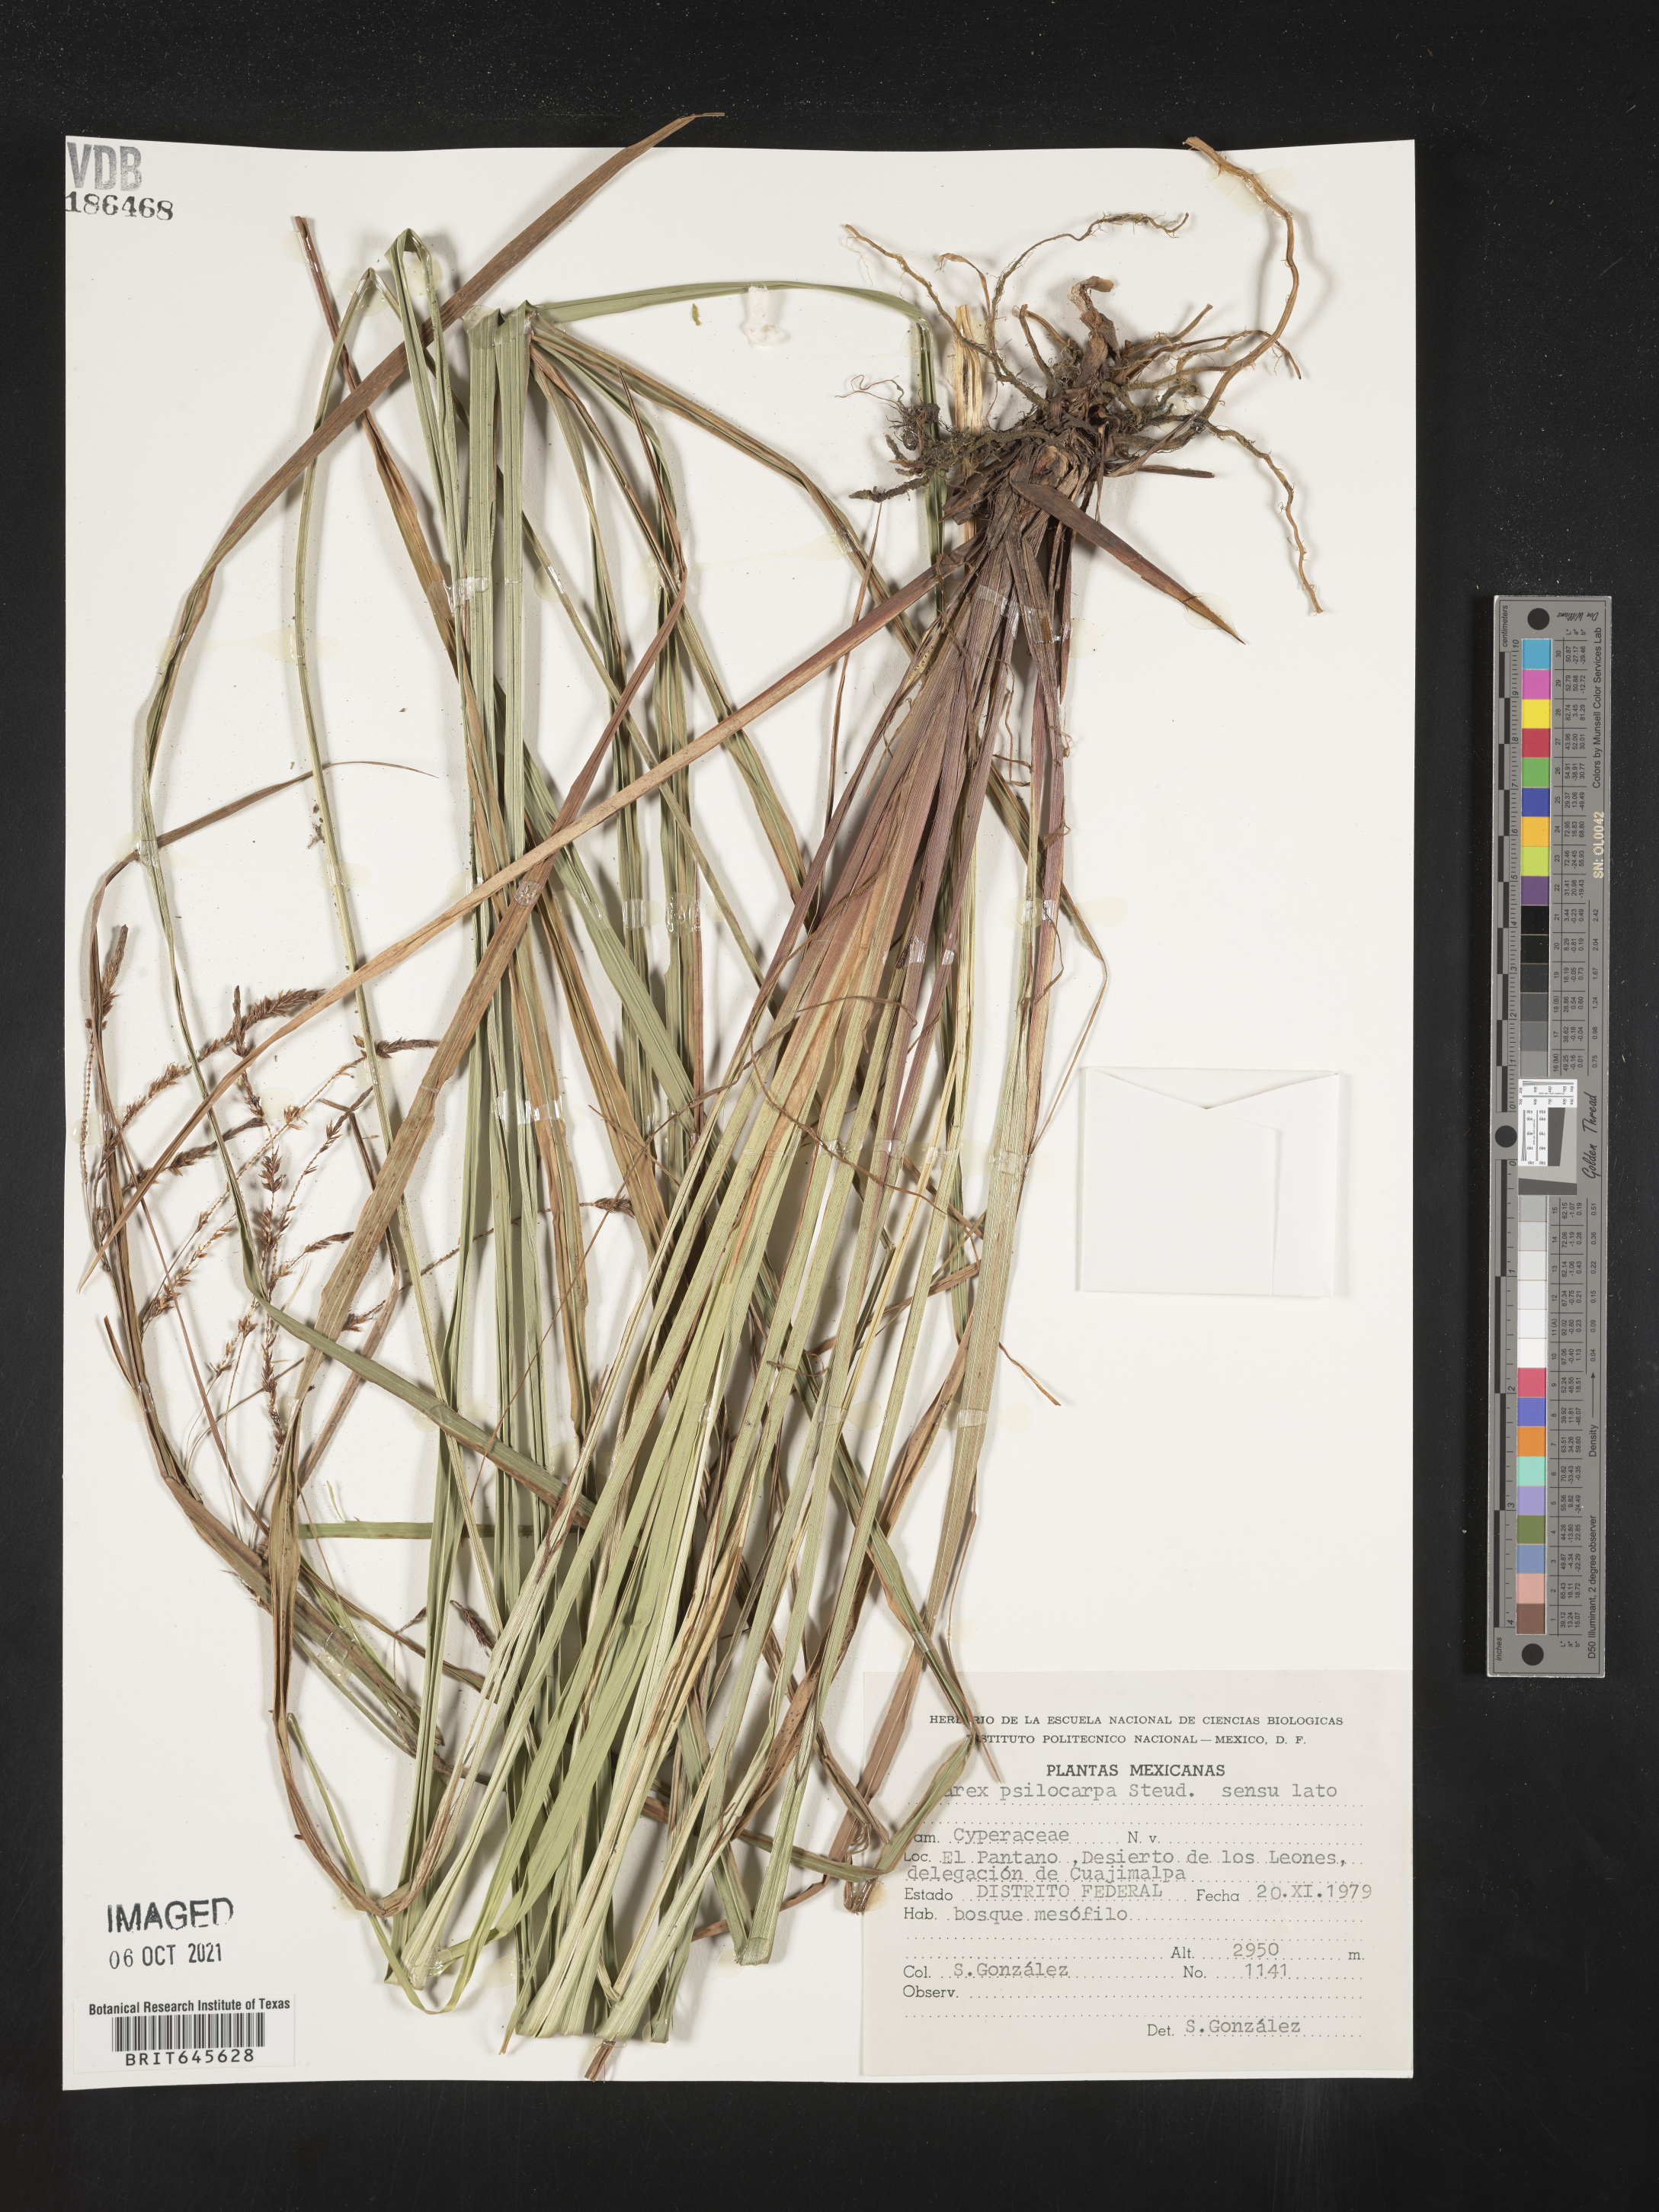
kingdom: Plantae
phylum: Tracheophyta
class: Liliopsida
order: Poales
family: Cyperaceae
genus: Carex
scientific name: Carex
